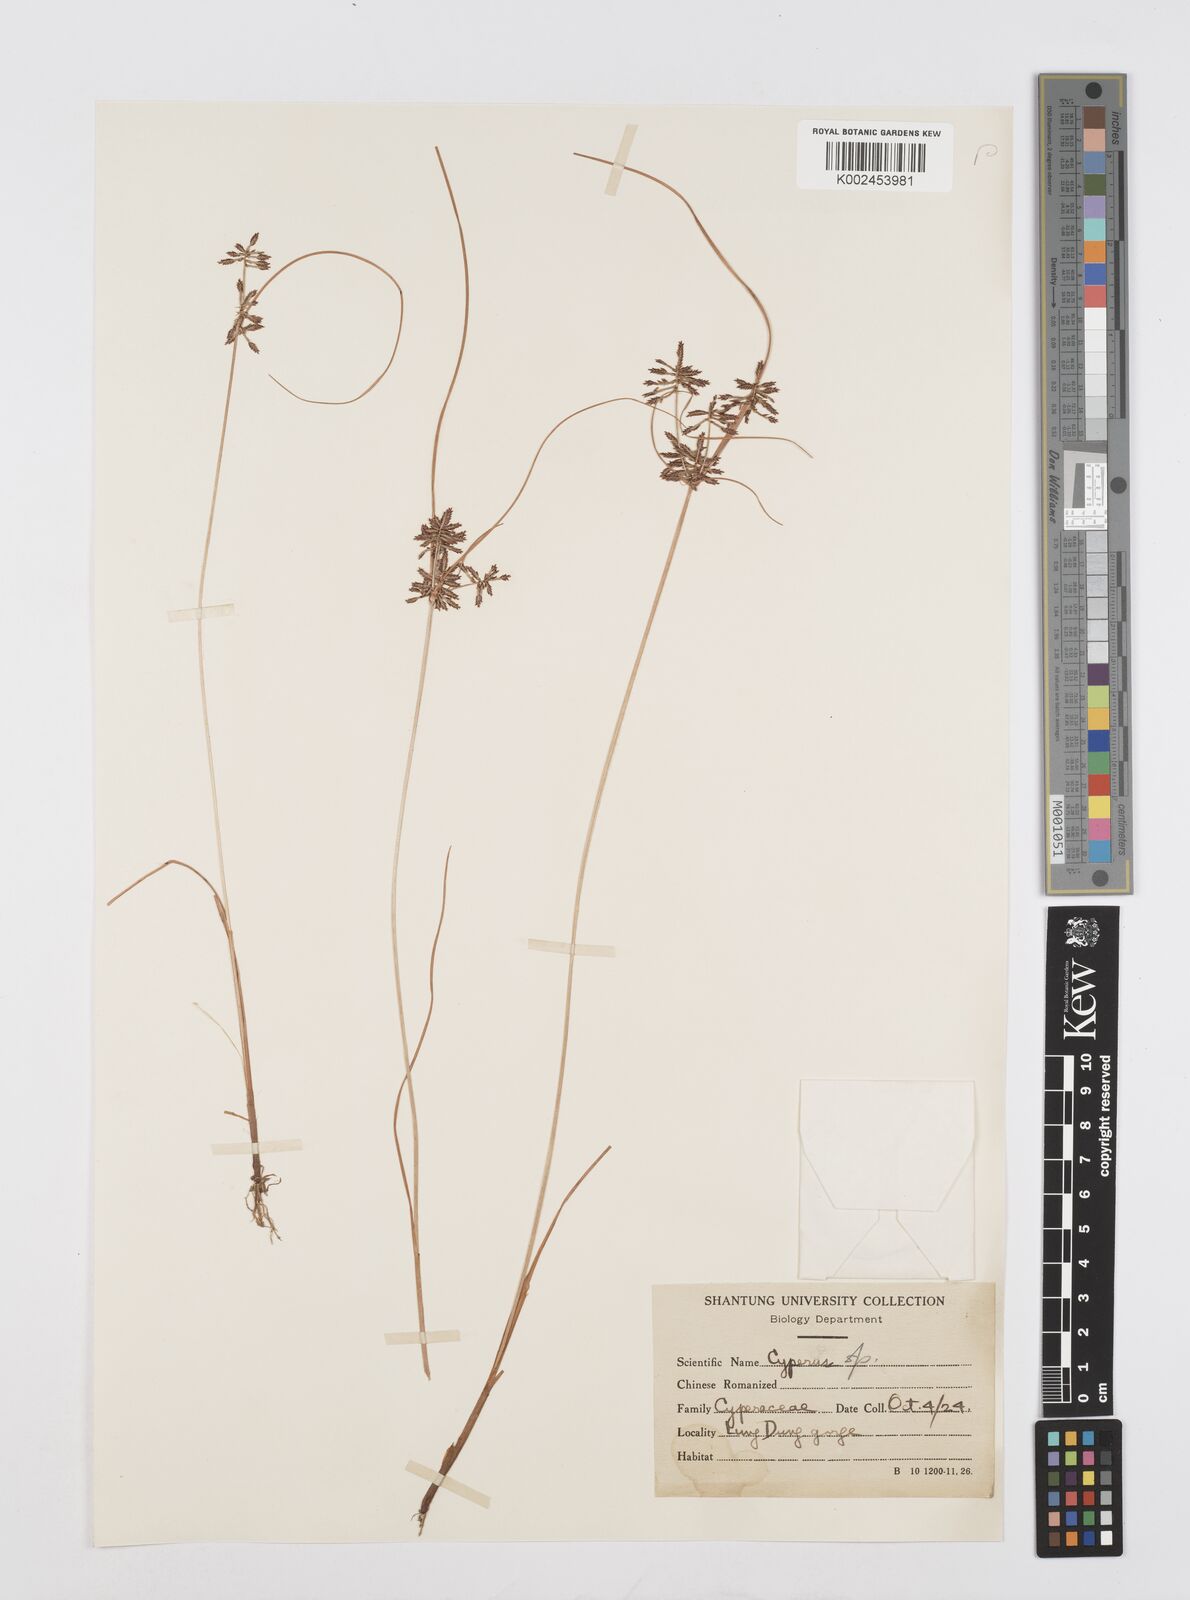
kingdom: Plantae
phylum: Tracheophyta
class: Liliopsida
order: Poales
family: Cyperaceae
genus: Cyperus
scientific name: Cyperus
